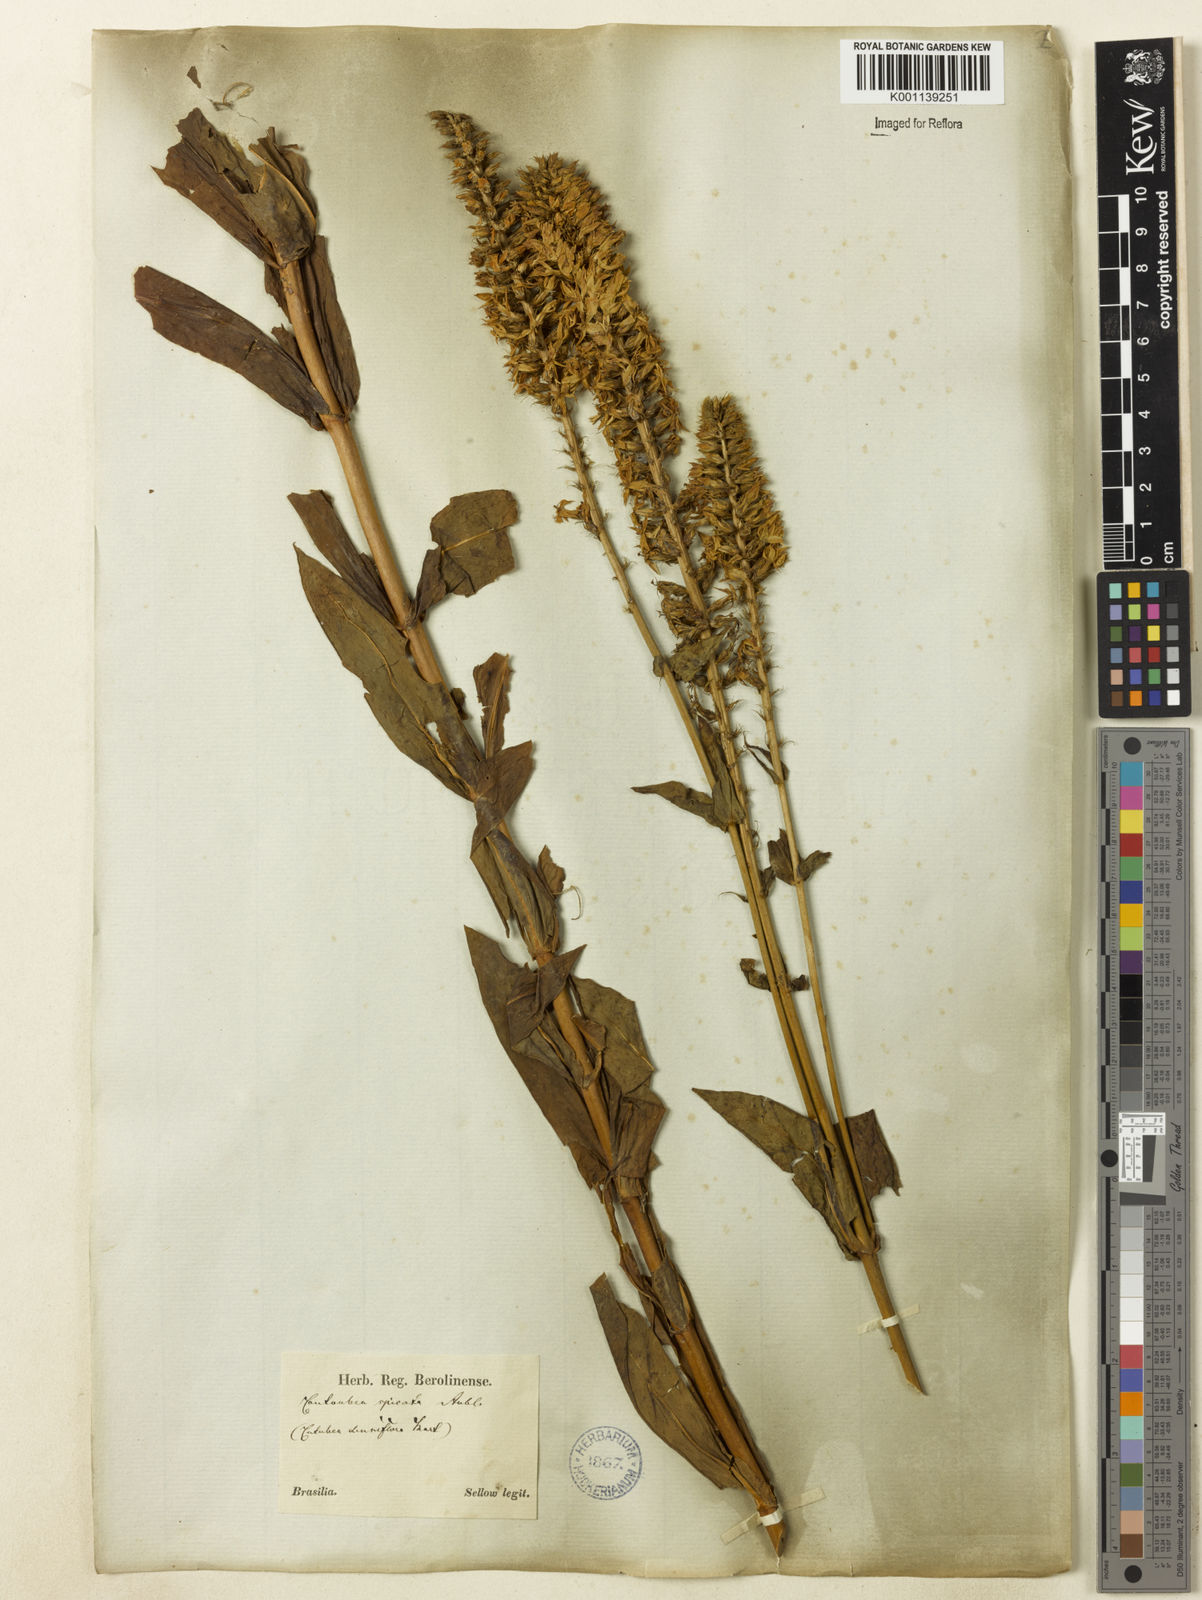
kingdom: Plantae
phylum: Tracheophyta
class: Magnoliopsida
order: Gentianales
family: Gentianaceae
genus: Coutoubea
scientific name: Coutoubea spicata
